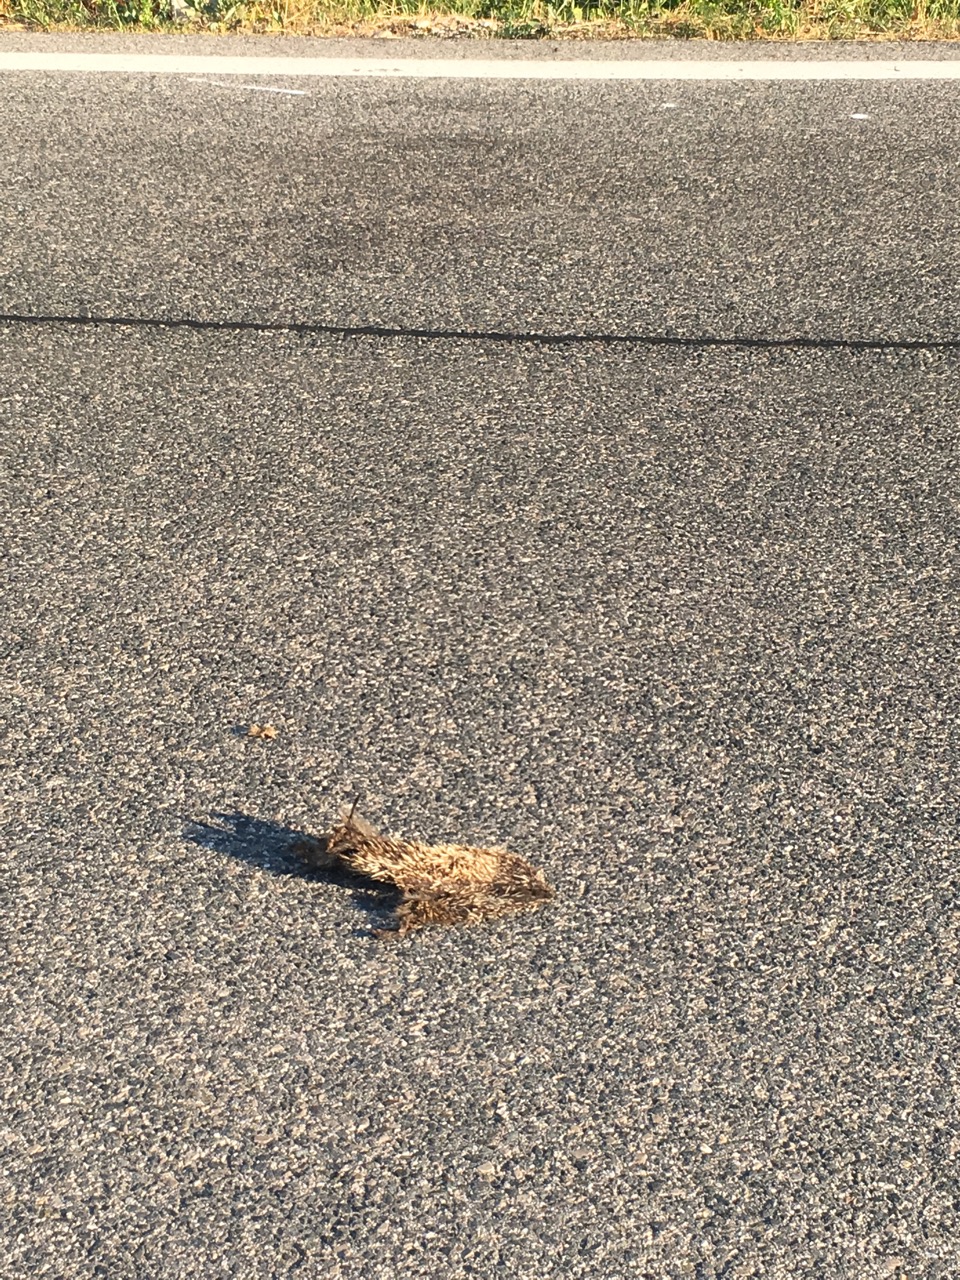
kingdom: Animalia
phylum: Chordata
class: Mammalia
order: Erinaceomorpha
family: Erinaceidae
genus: Erinaceus
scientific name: Erinaceus
